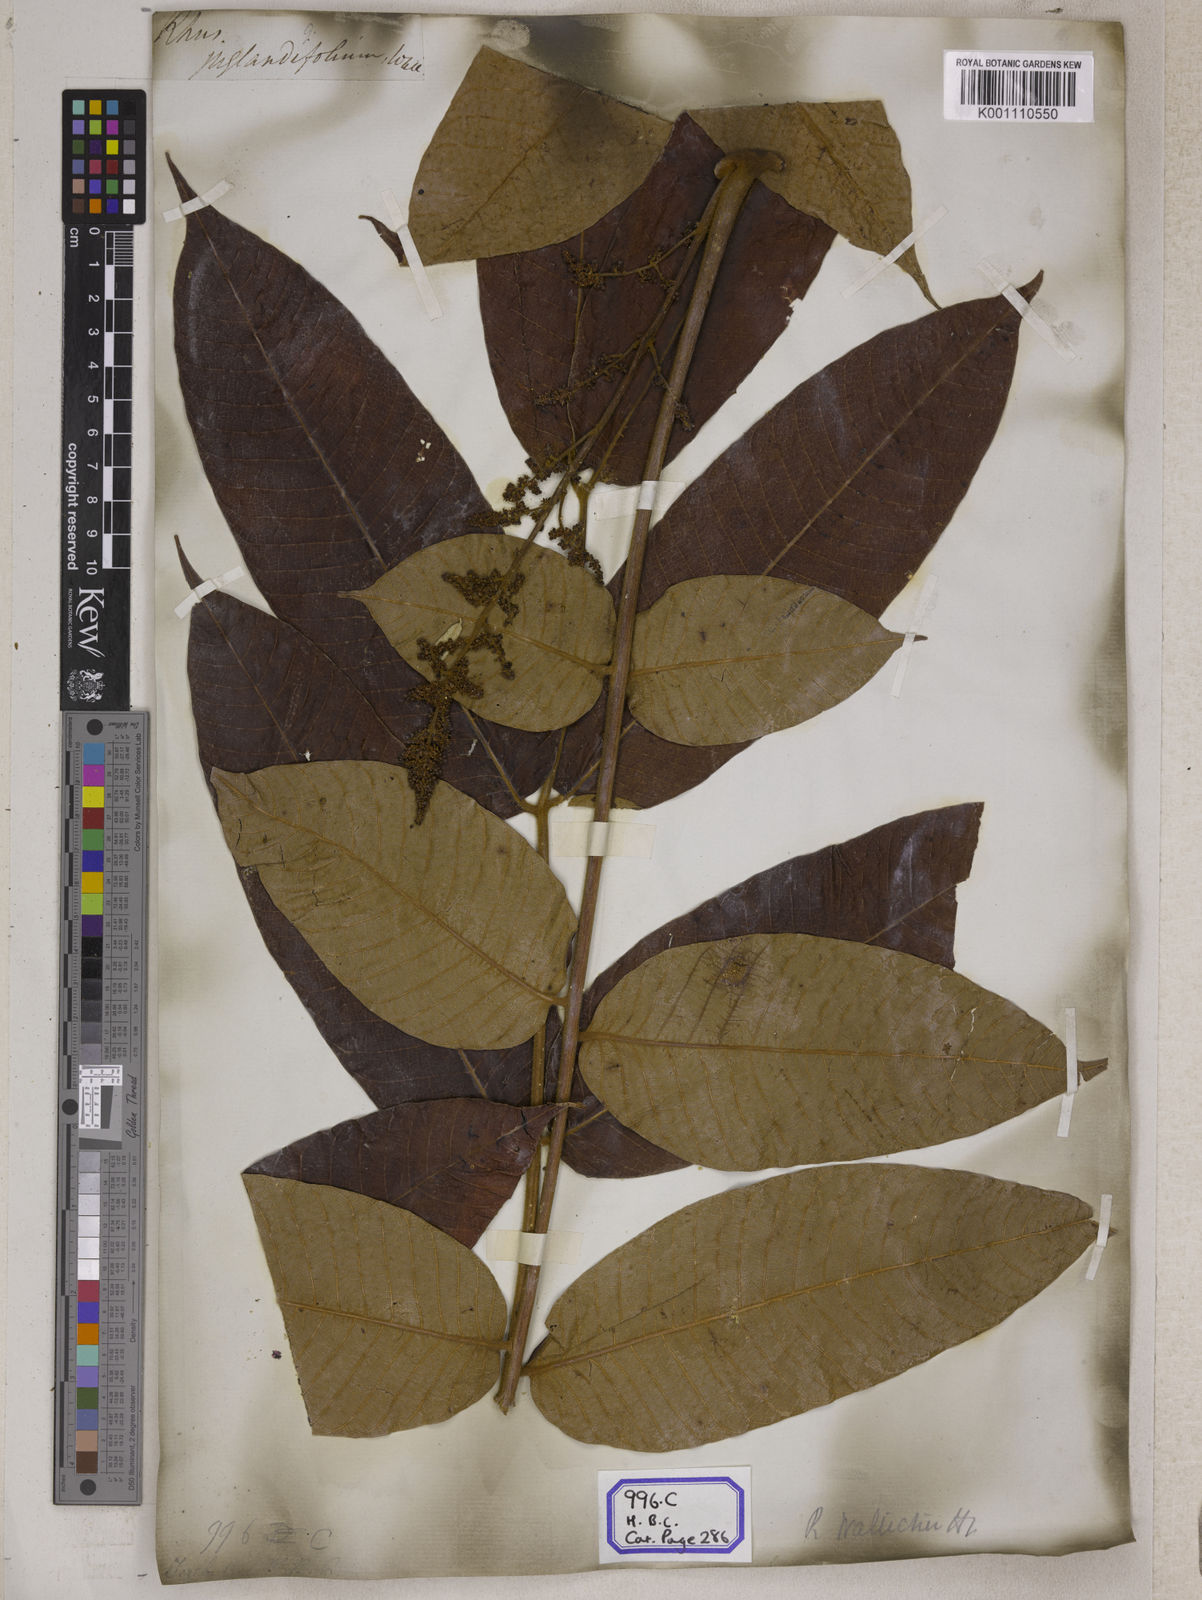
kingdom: Plantae
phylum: Tracheophyta
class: Magnoliopsida
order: Sapindales
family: Anacardiaceae
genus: Rhus
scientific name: Rhus
